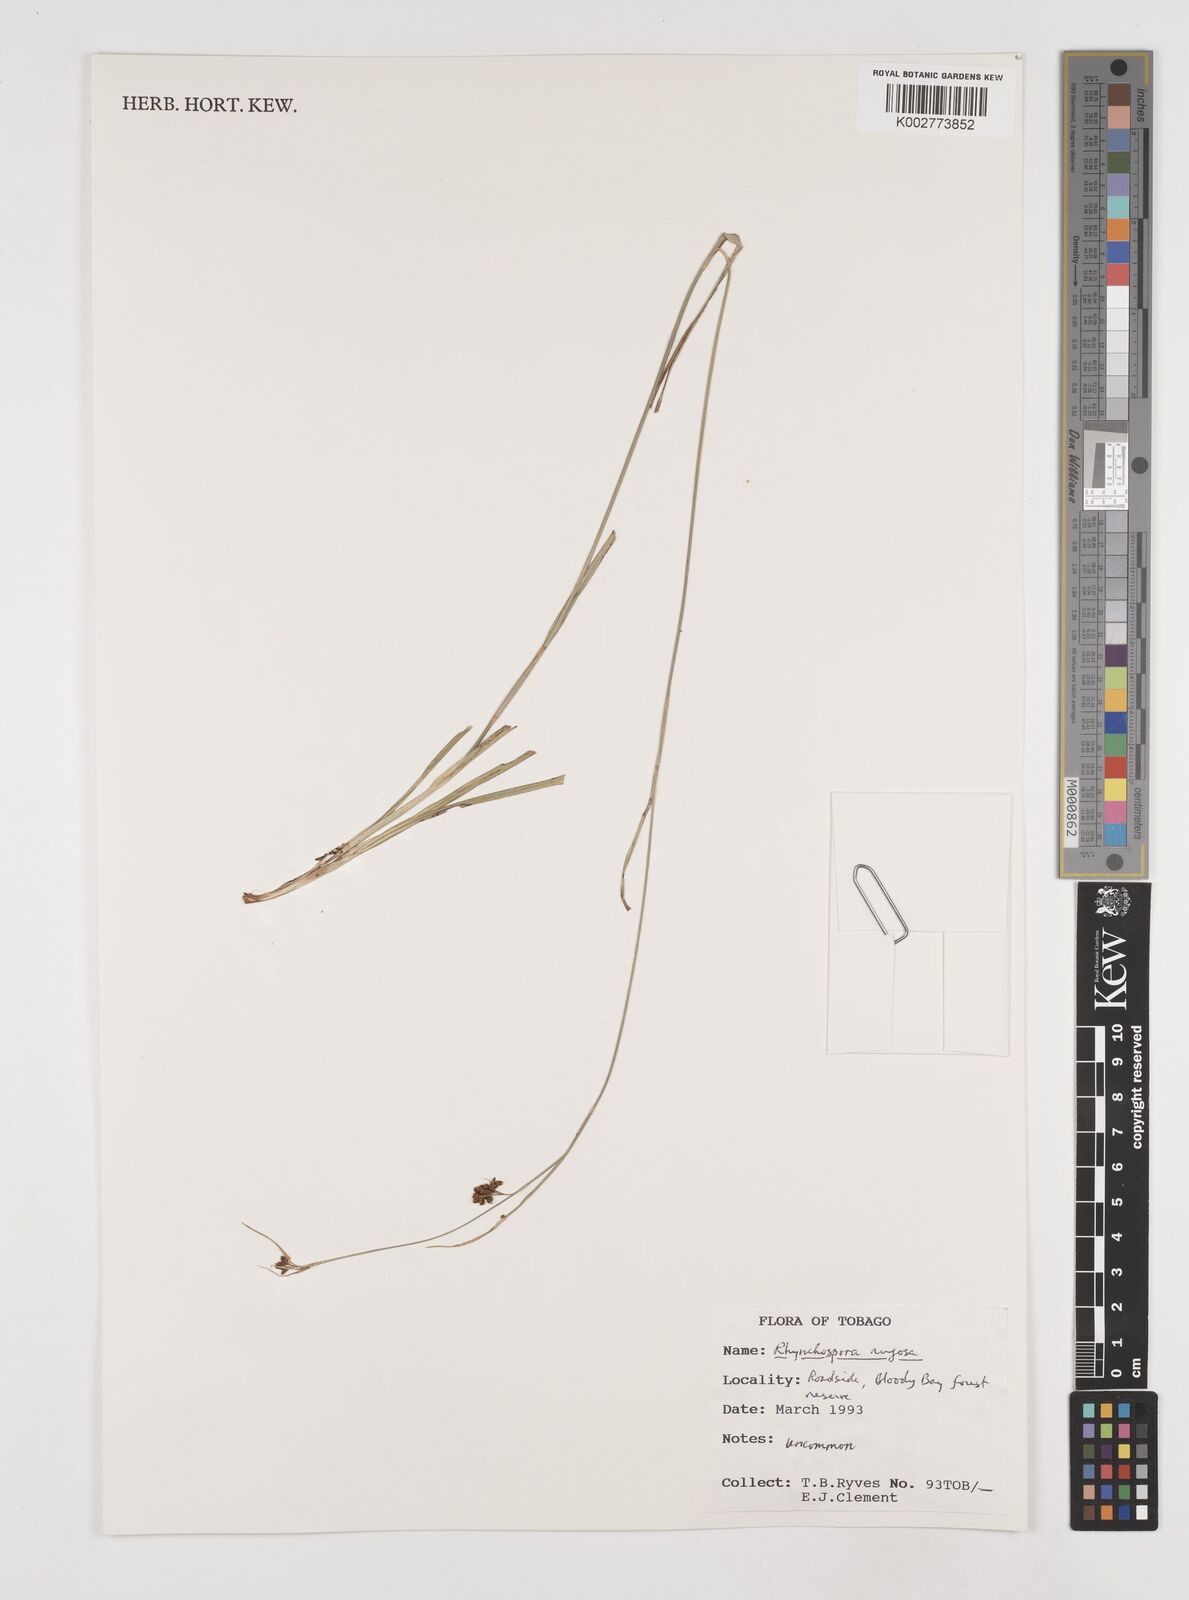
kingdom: Plantae
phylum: Tracheophyta
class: Liliopsida
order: Poales
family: Cyperaceae
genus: Rhynchospora
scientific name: Rhynchospora rugosa
